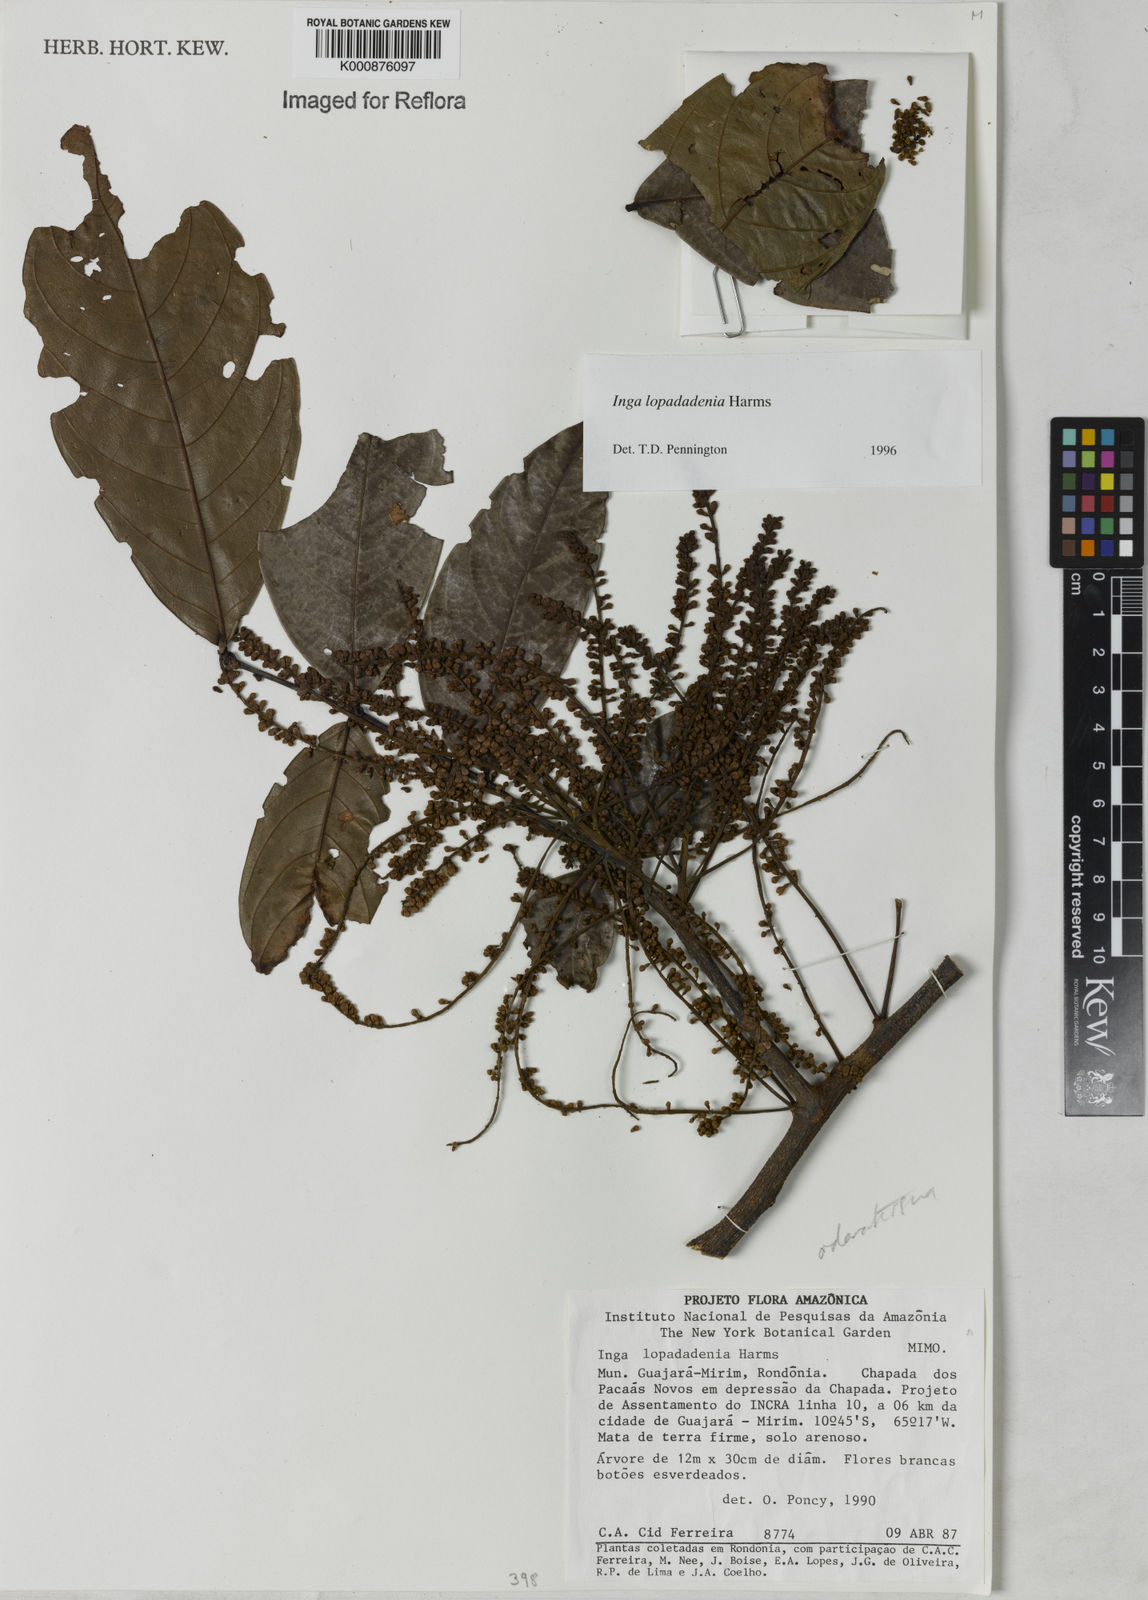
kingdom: Plantae
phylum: Tracheophyta
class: Magnoliopsida
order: Fabales
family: Fabaceae
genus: Inga
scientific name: Inga lopadadenia
